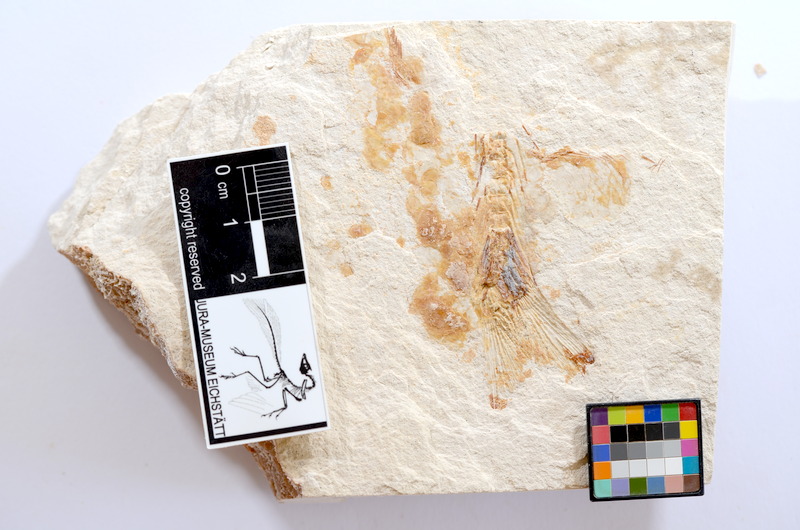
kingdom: Animalia
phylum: Chordata
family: Ascalaboidae
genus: Tharsis
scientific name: Tharsis dubius
